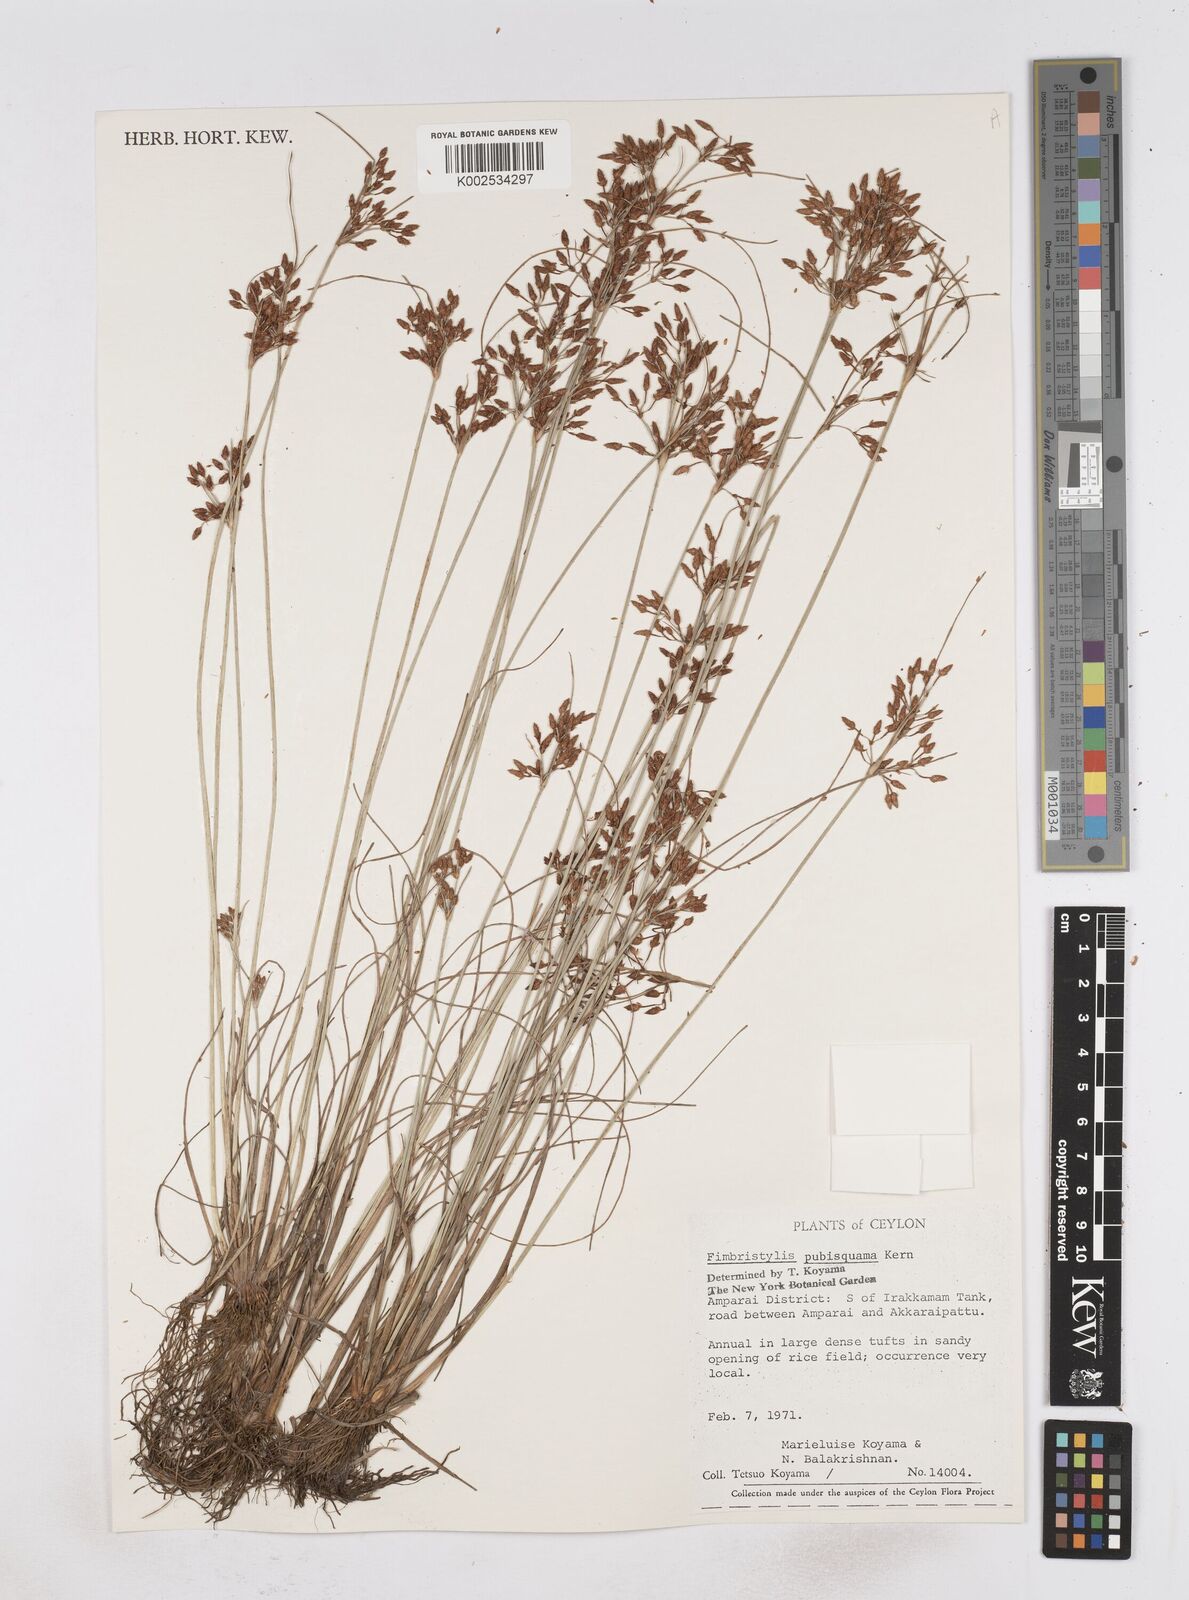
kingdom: Plantae
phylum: Tracheophyta
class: Liliopsida
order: Poales
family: Cyperaceae
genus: Fimbristylis
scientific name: Fimbristylis pubisquama
